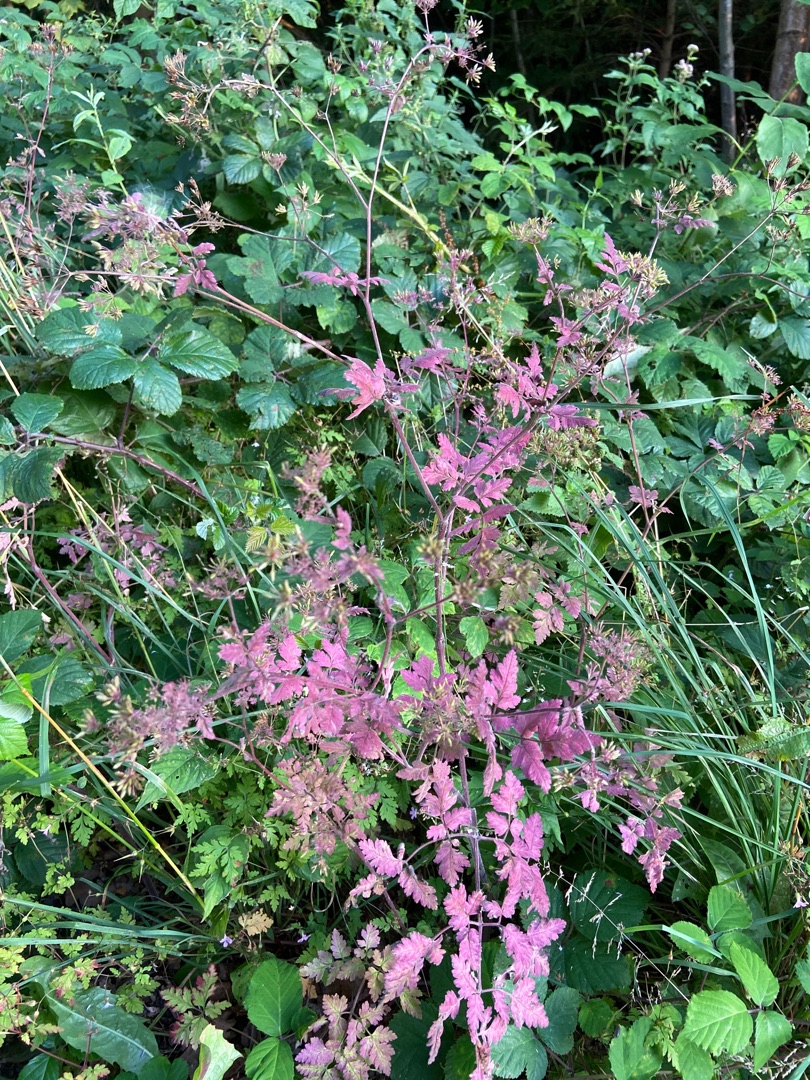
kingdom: Plantae
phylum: Tracheophyta
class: Magnoliopsida
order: Apiales
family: Apiaceae
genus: Chaerophyllum
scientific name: Chaerophyllum temulum
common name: Almindelig hulsvøb
